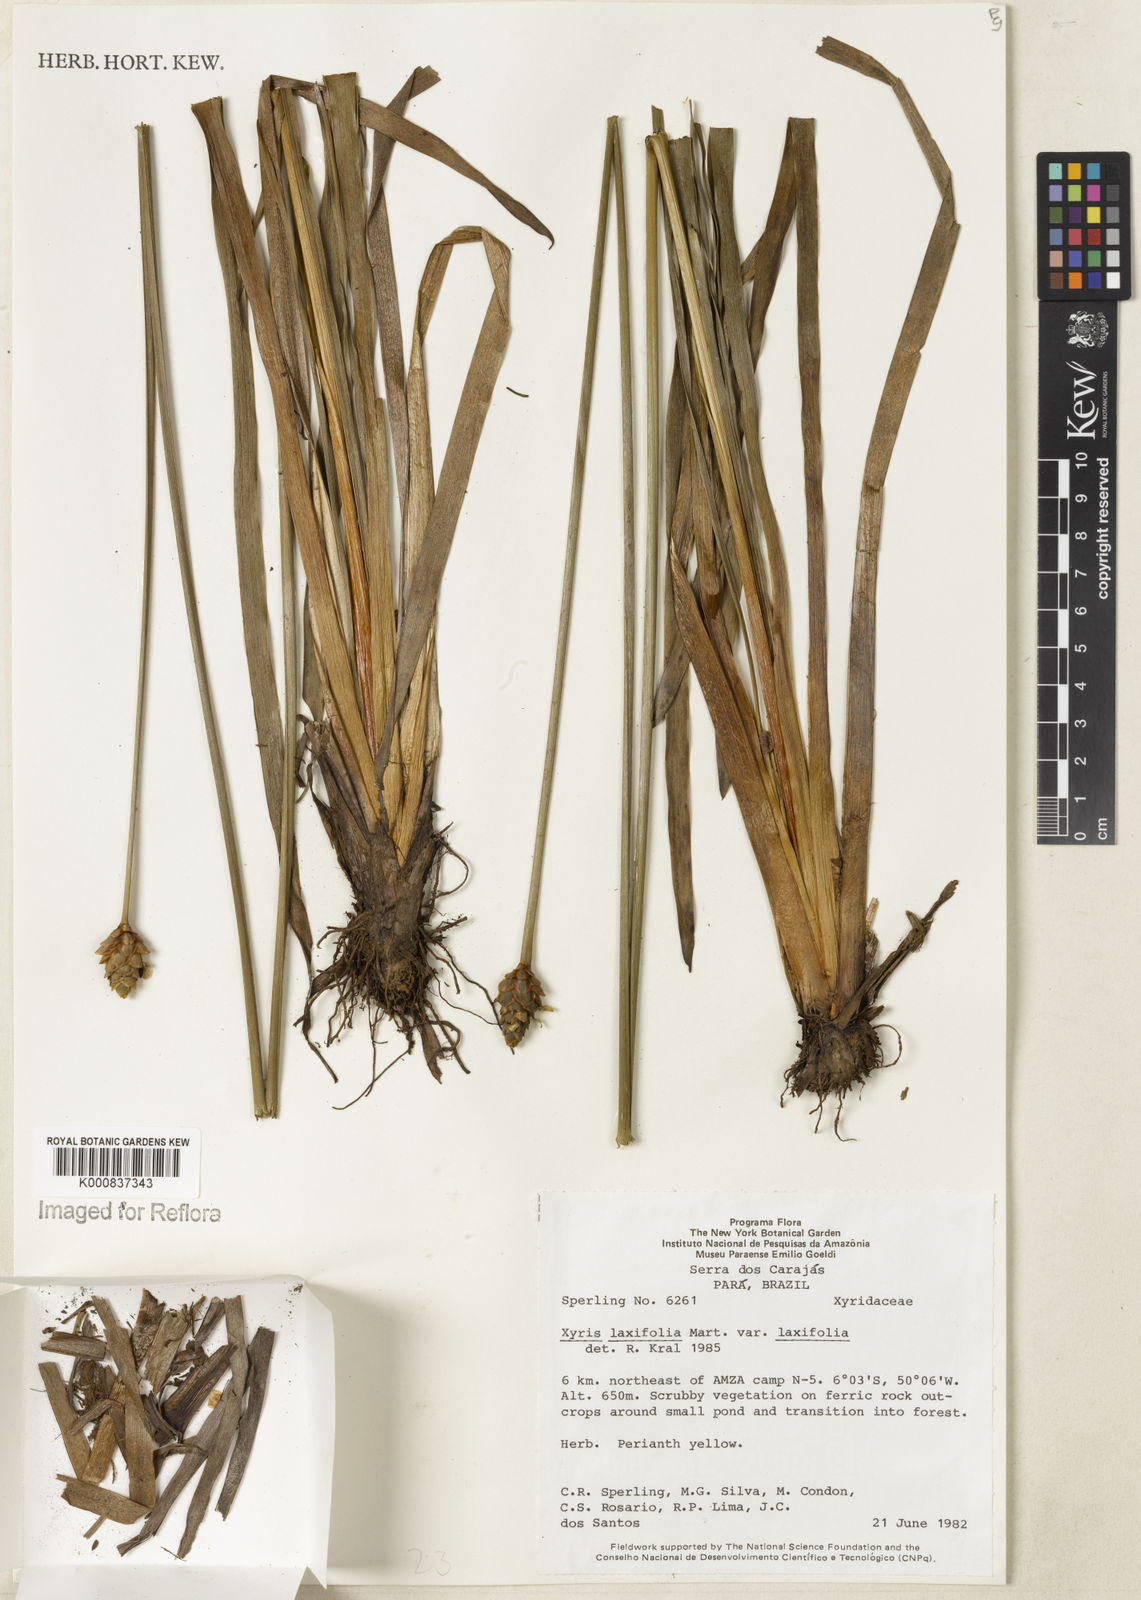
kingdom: Plantae
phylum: Tracheophyta
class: Liliopsida
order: Poales
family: Xyridaceae
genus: Xyris
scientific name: Xyris laxifolia
